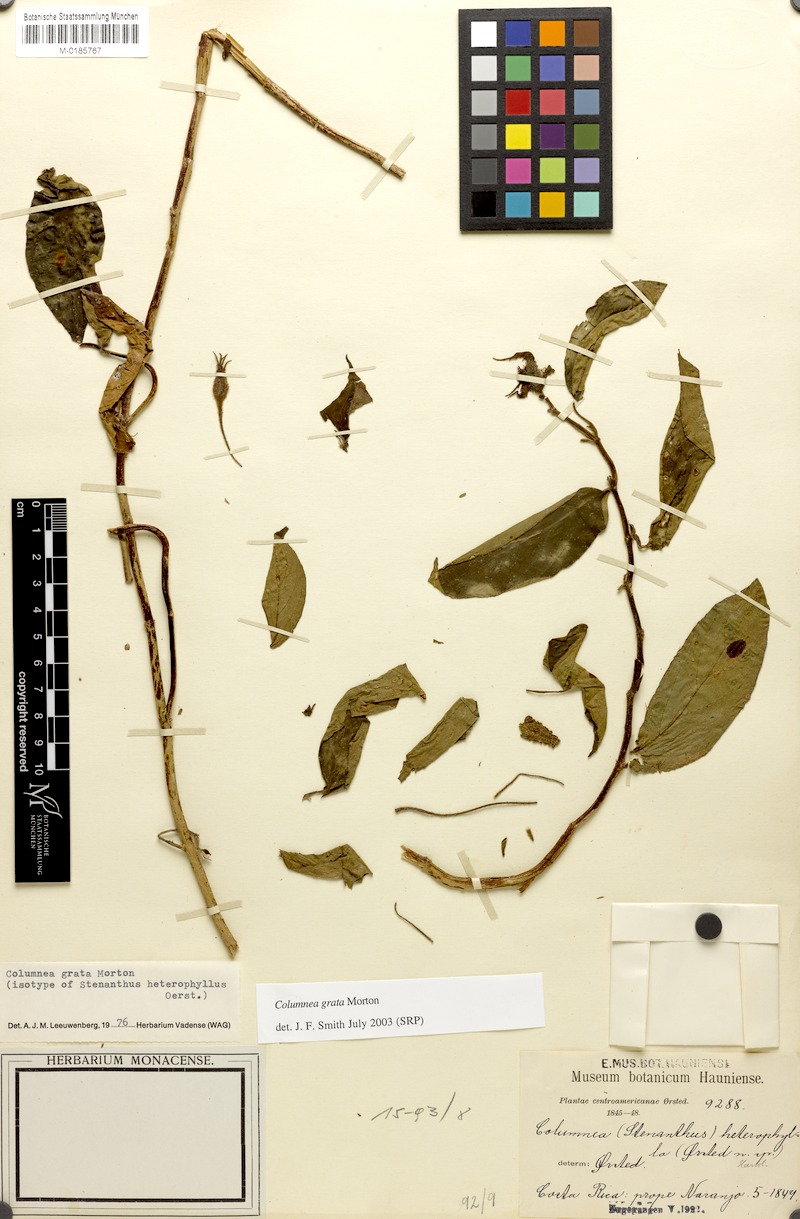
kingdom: Plantae
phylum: Tracheophyta
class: Magnoliopsida
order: Lamiales
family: Gesneriaceae
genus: Columnea
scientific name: Columnea grata
